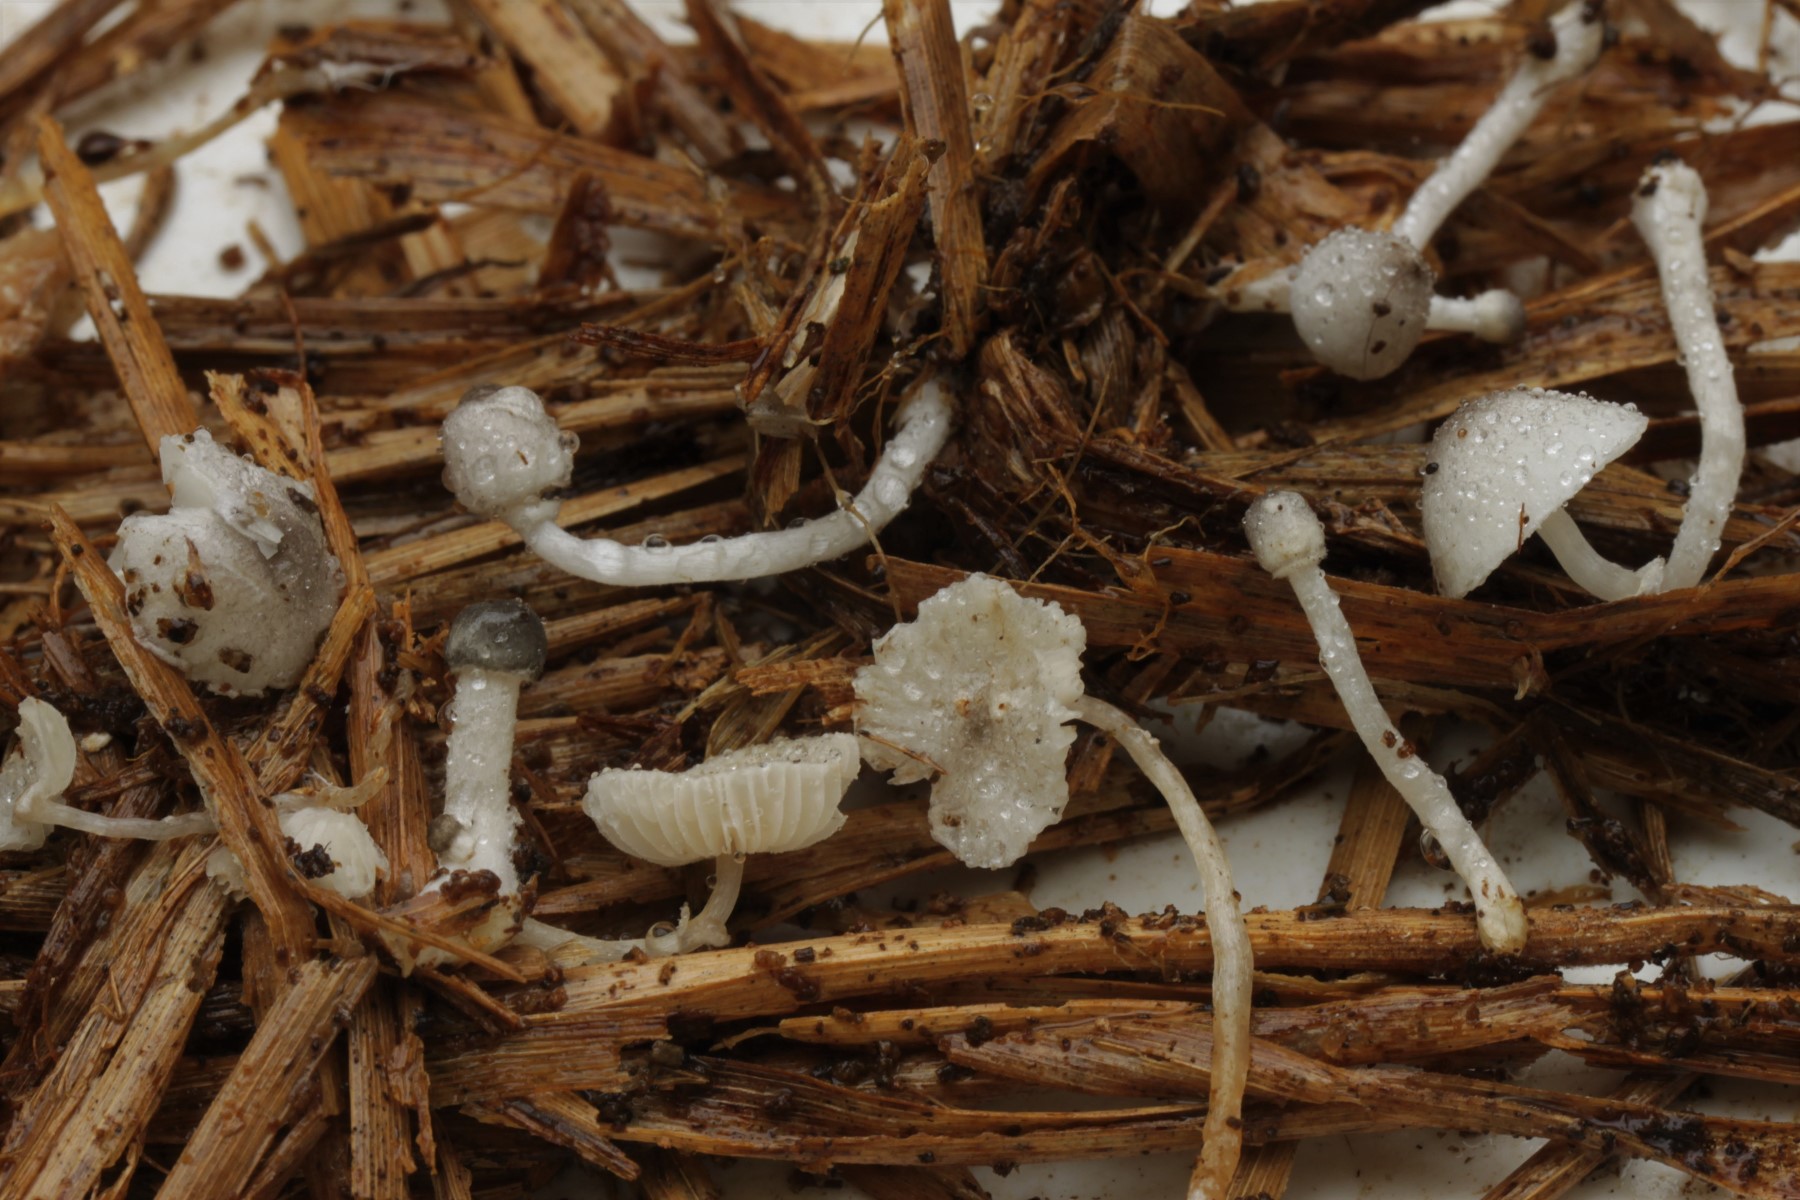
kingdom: Fungi
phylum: Basidiomycota
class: Agaricomycetes
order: Agaricales
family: Agaricaceae
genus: Leucoagaricus
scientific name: Leucoagaricus melanotrichus
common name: gråhåret silkehat
